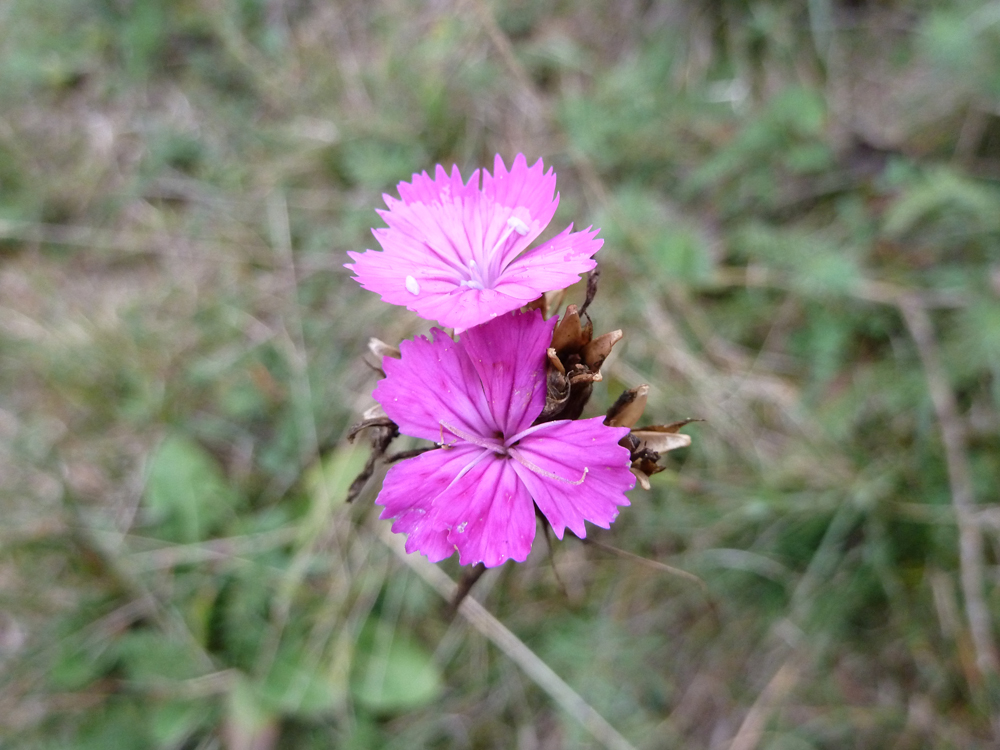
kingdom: Plantae
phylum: Tracheophyta
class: Magnoliopsida
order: Caryophyllales
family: Caryophyllaceae
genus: Dianthus
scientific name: Dianthus carthusianorum
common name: Carthusian pink
